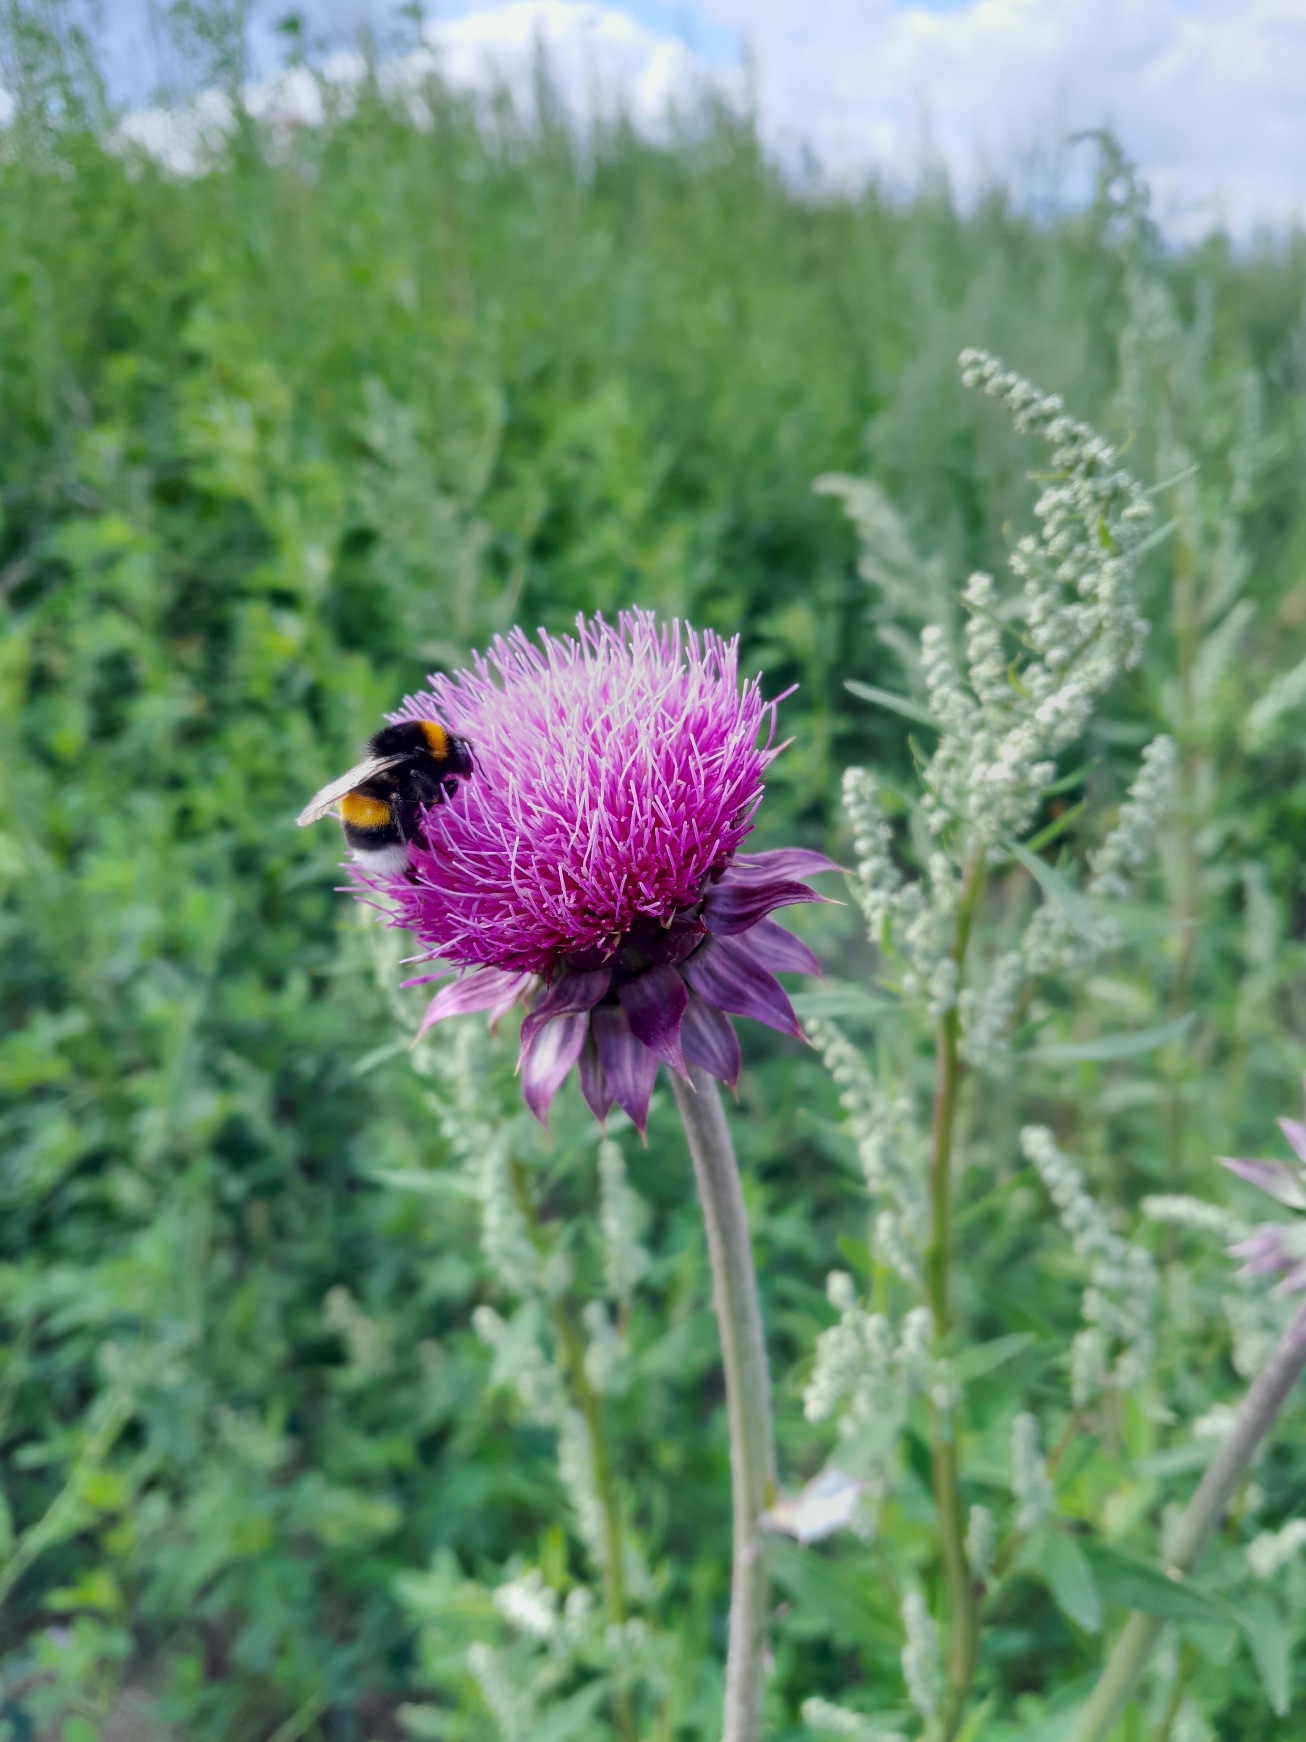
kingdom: Plantae
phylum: Tracheophyta
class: Magnoliopsida
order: Asterales
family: Asteraceae
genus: Carduus
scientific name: Carduus nutans
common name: Olymp-tidsel
